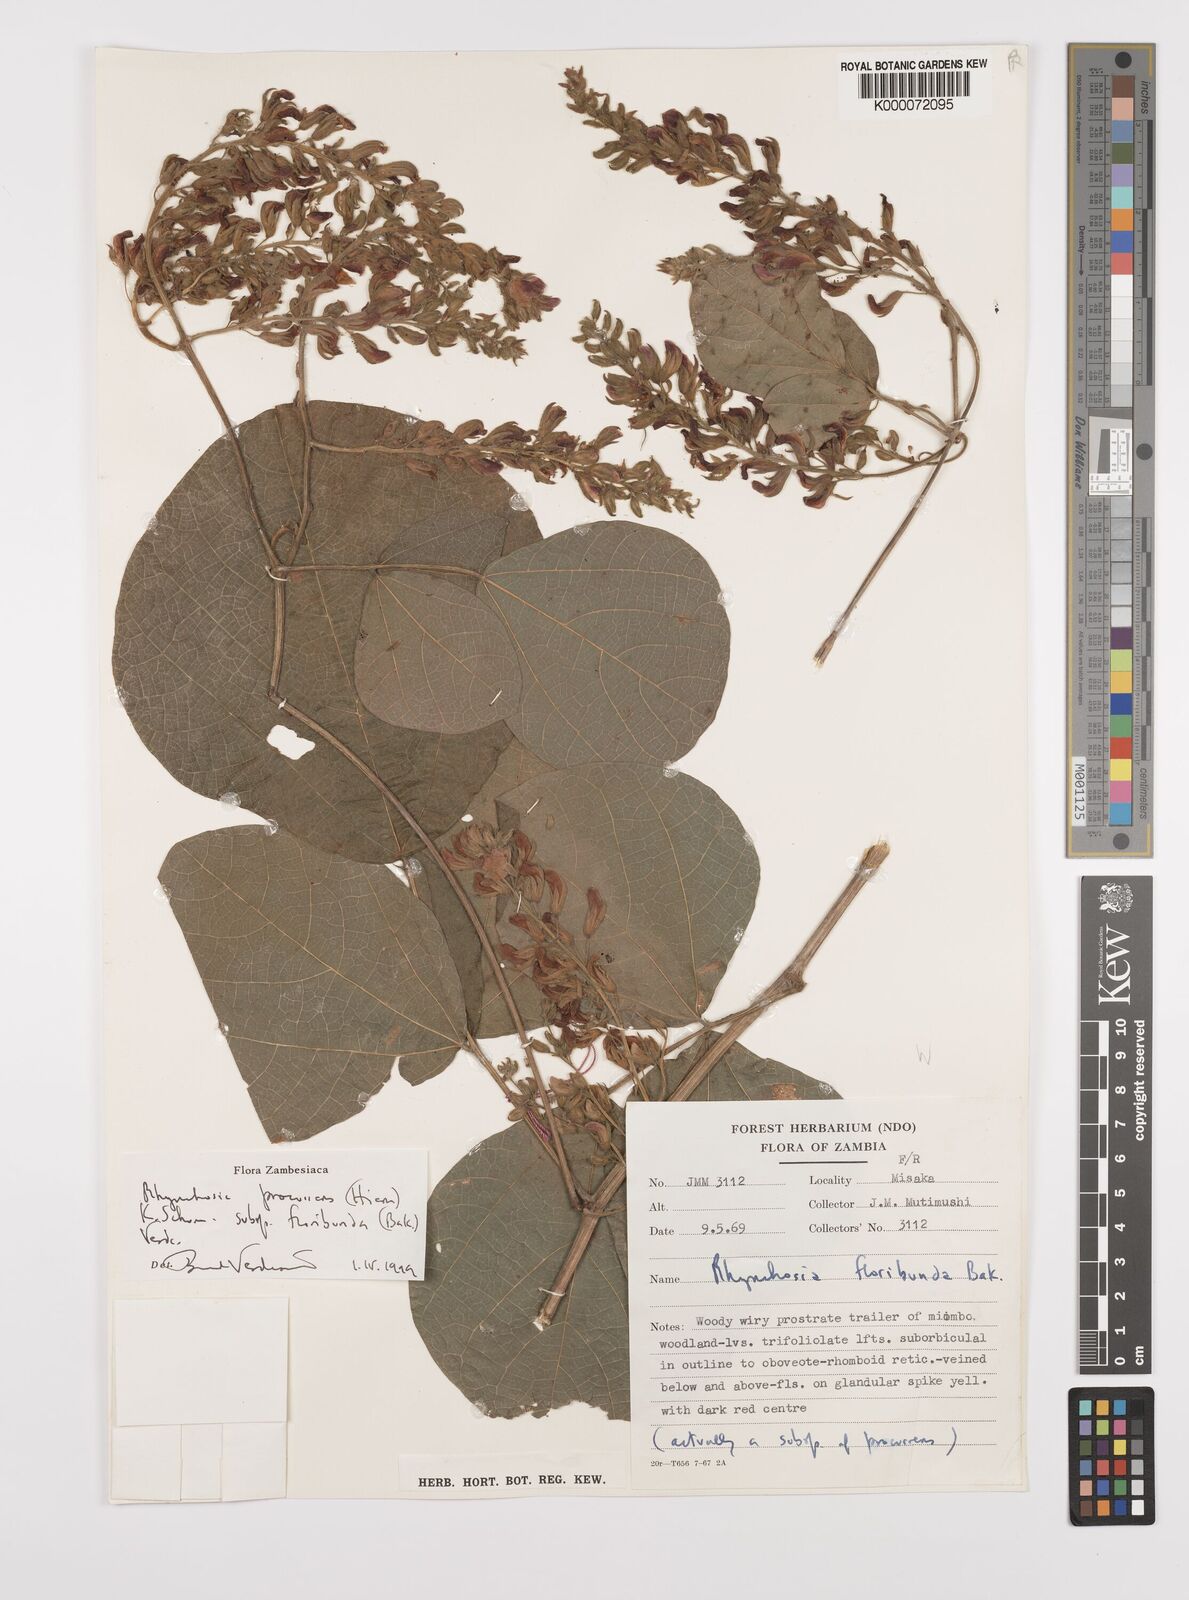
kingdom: Plantae
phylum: Tracheophyta
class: Magnoliopsida
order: Fabales
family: Fabaceae
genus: Rhynchosia
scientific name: Rhynchosia procurrens
